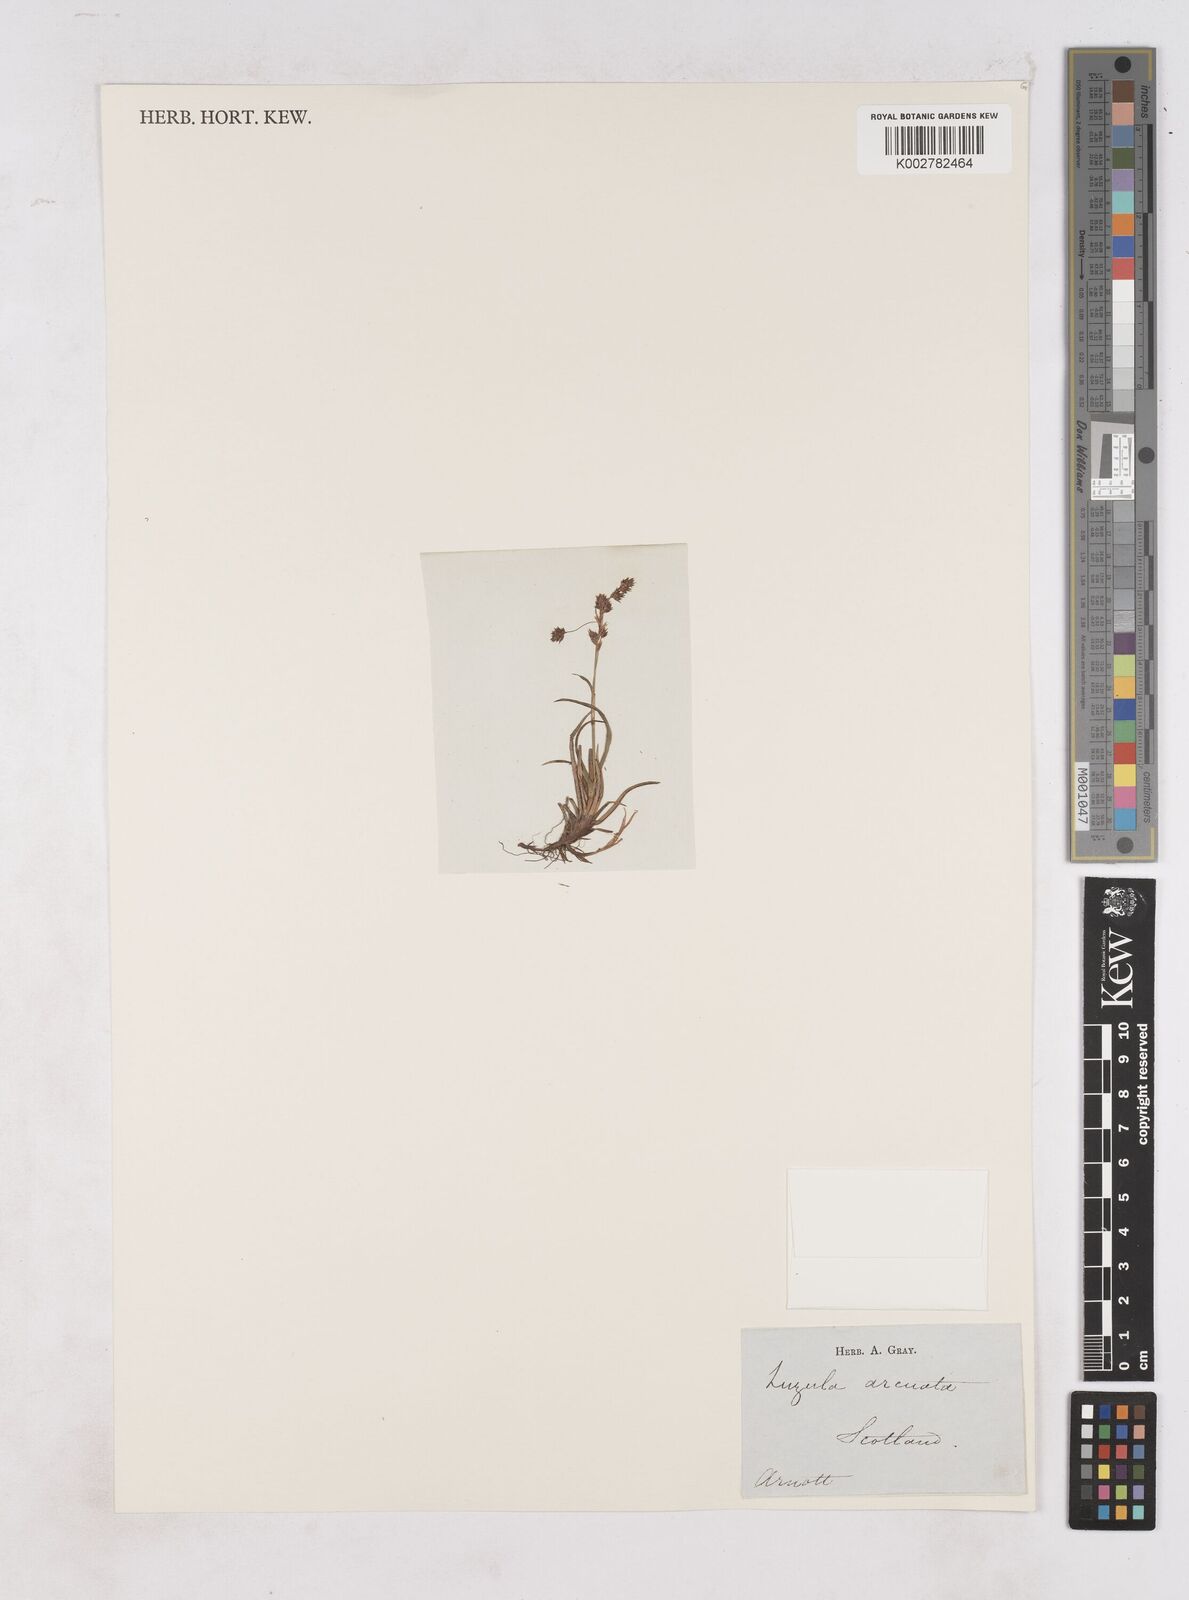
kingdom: Plantae
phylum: Tracheophyta
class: Liliopsida
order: Poales
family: Juncaceae
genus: Luzula
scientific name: Luzula arcuata
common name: Curved wood-rush
